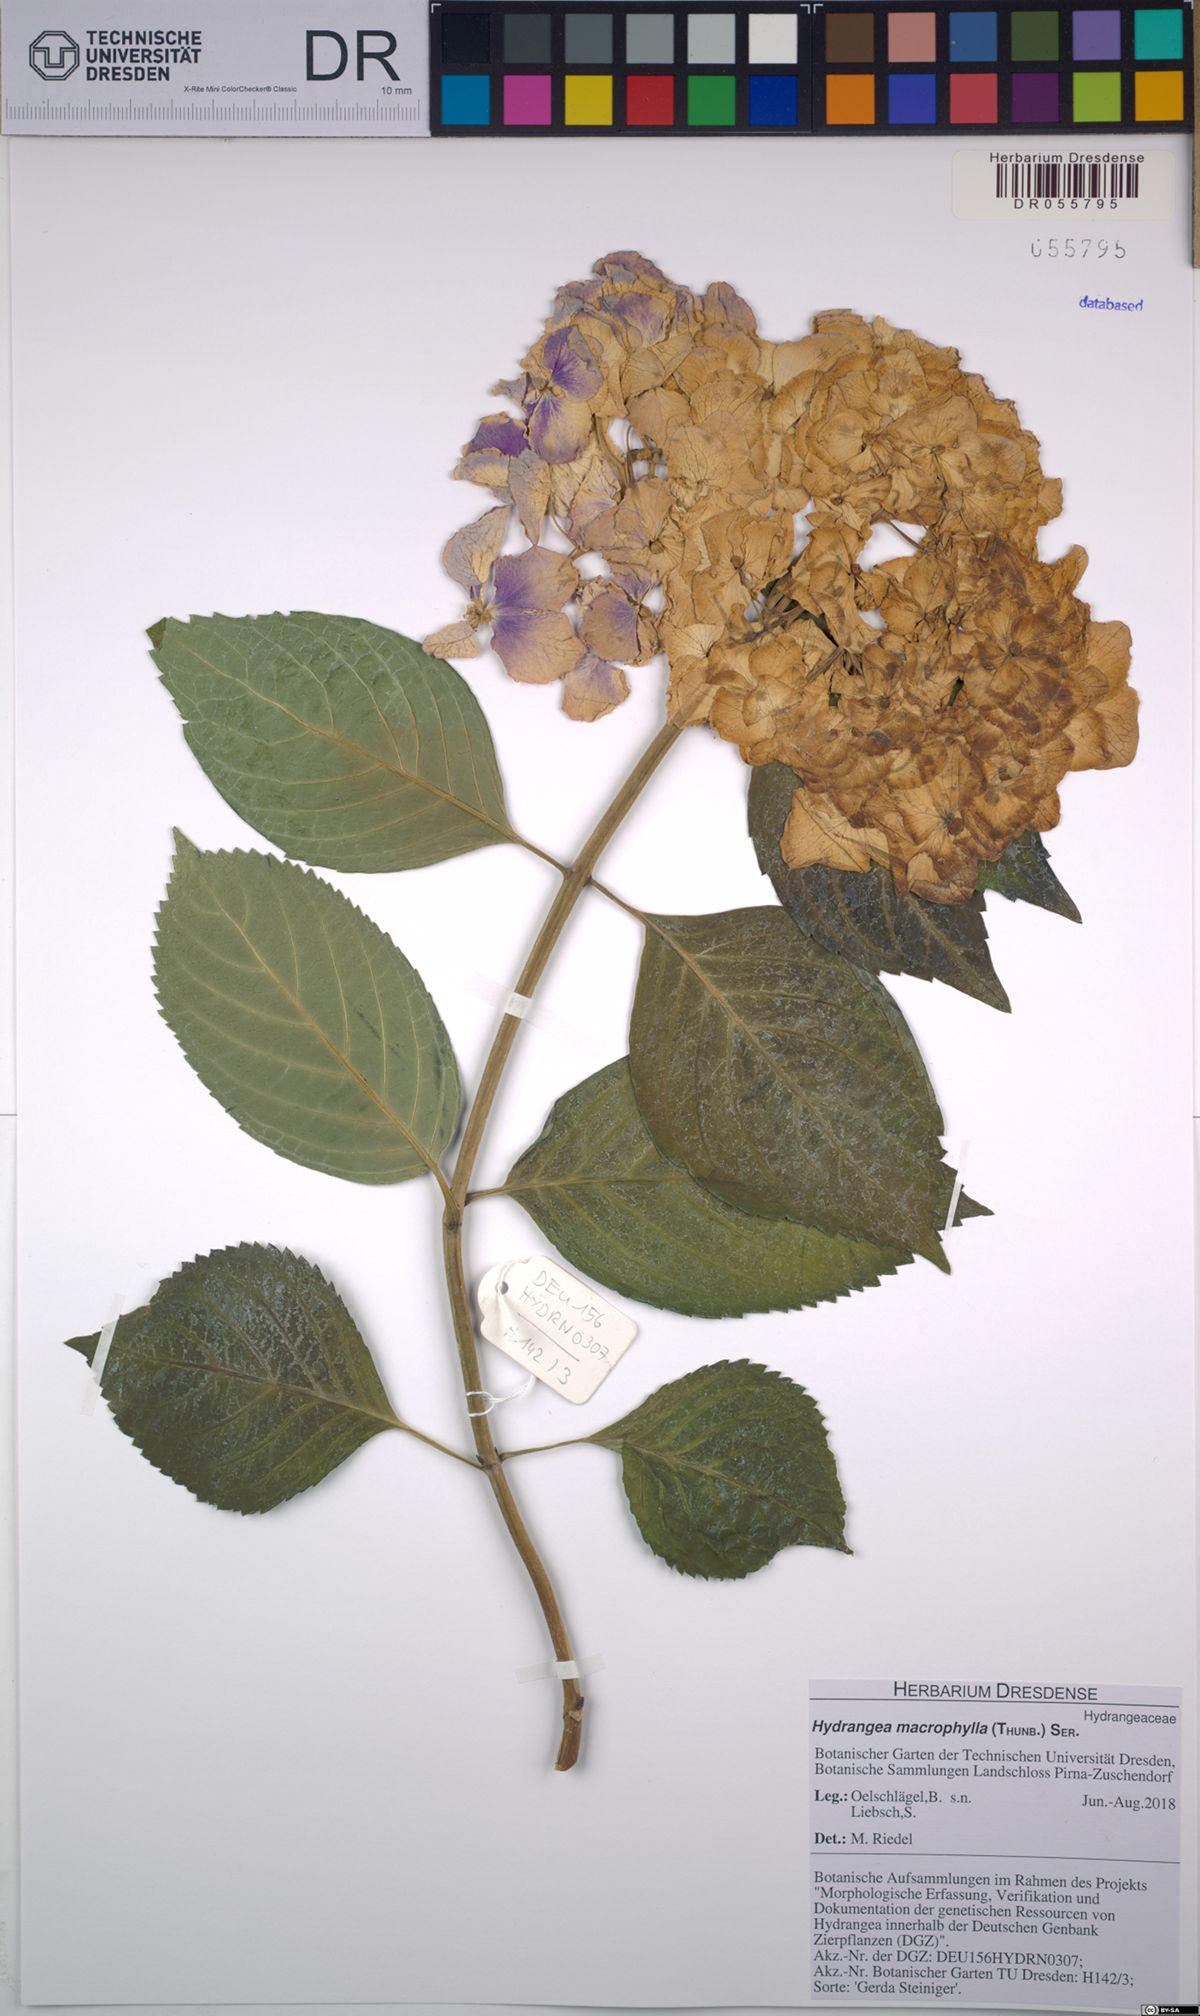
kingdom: Plantae
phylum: Tracheophyta
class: Magnoliopsida
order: Cornales
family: Hydrangeaceae
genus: Hydrangea
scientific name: Hydrangea macrophylla
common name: Hydrangea
